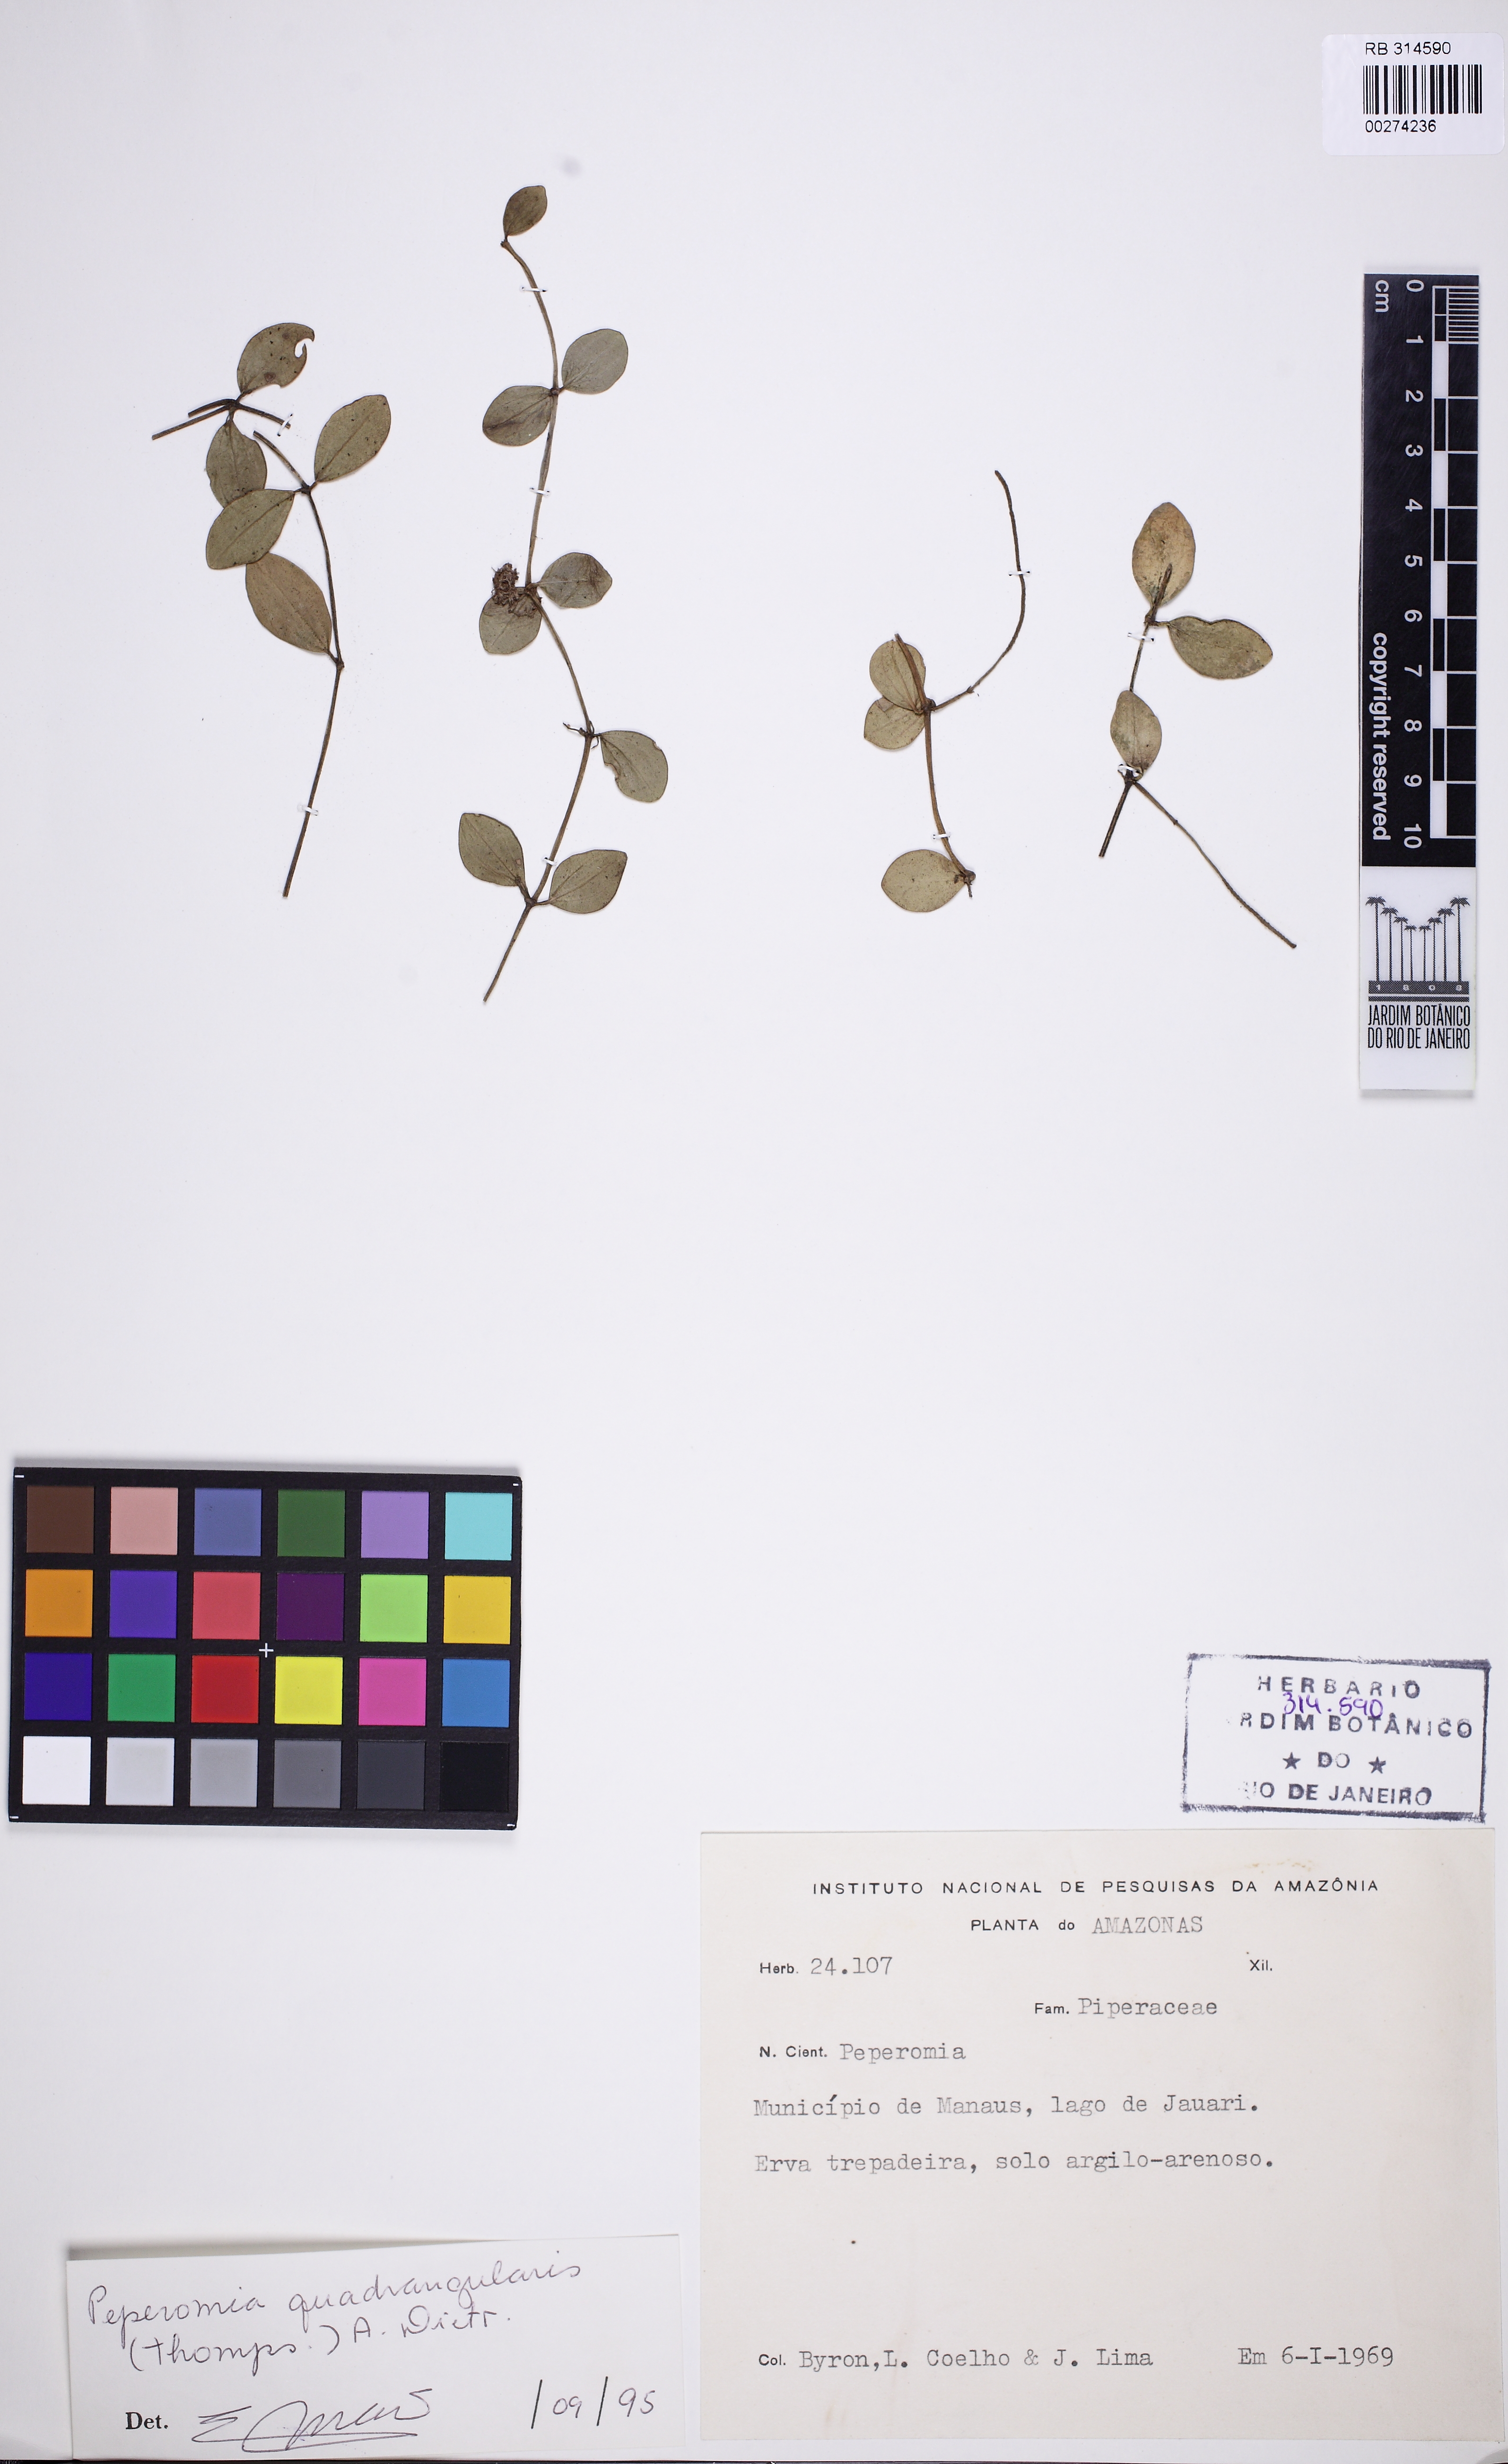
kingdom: Plantae
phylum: Tracheophyta
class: Magnoliopsida
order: Piperales
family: Piperaceae
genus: Peperomia
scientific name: Peperomia quadrangularis
